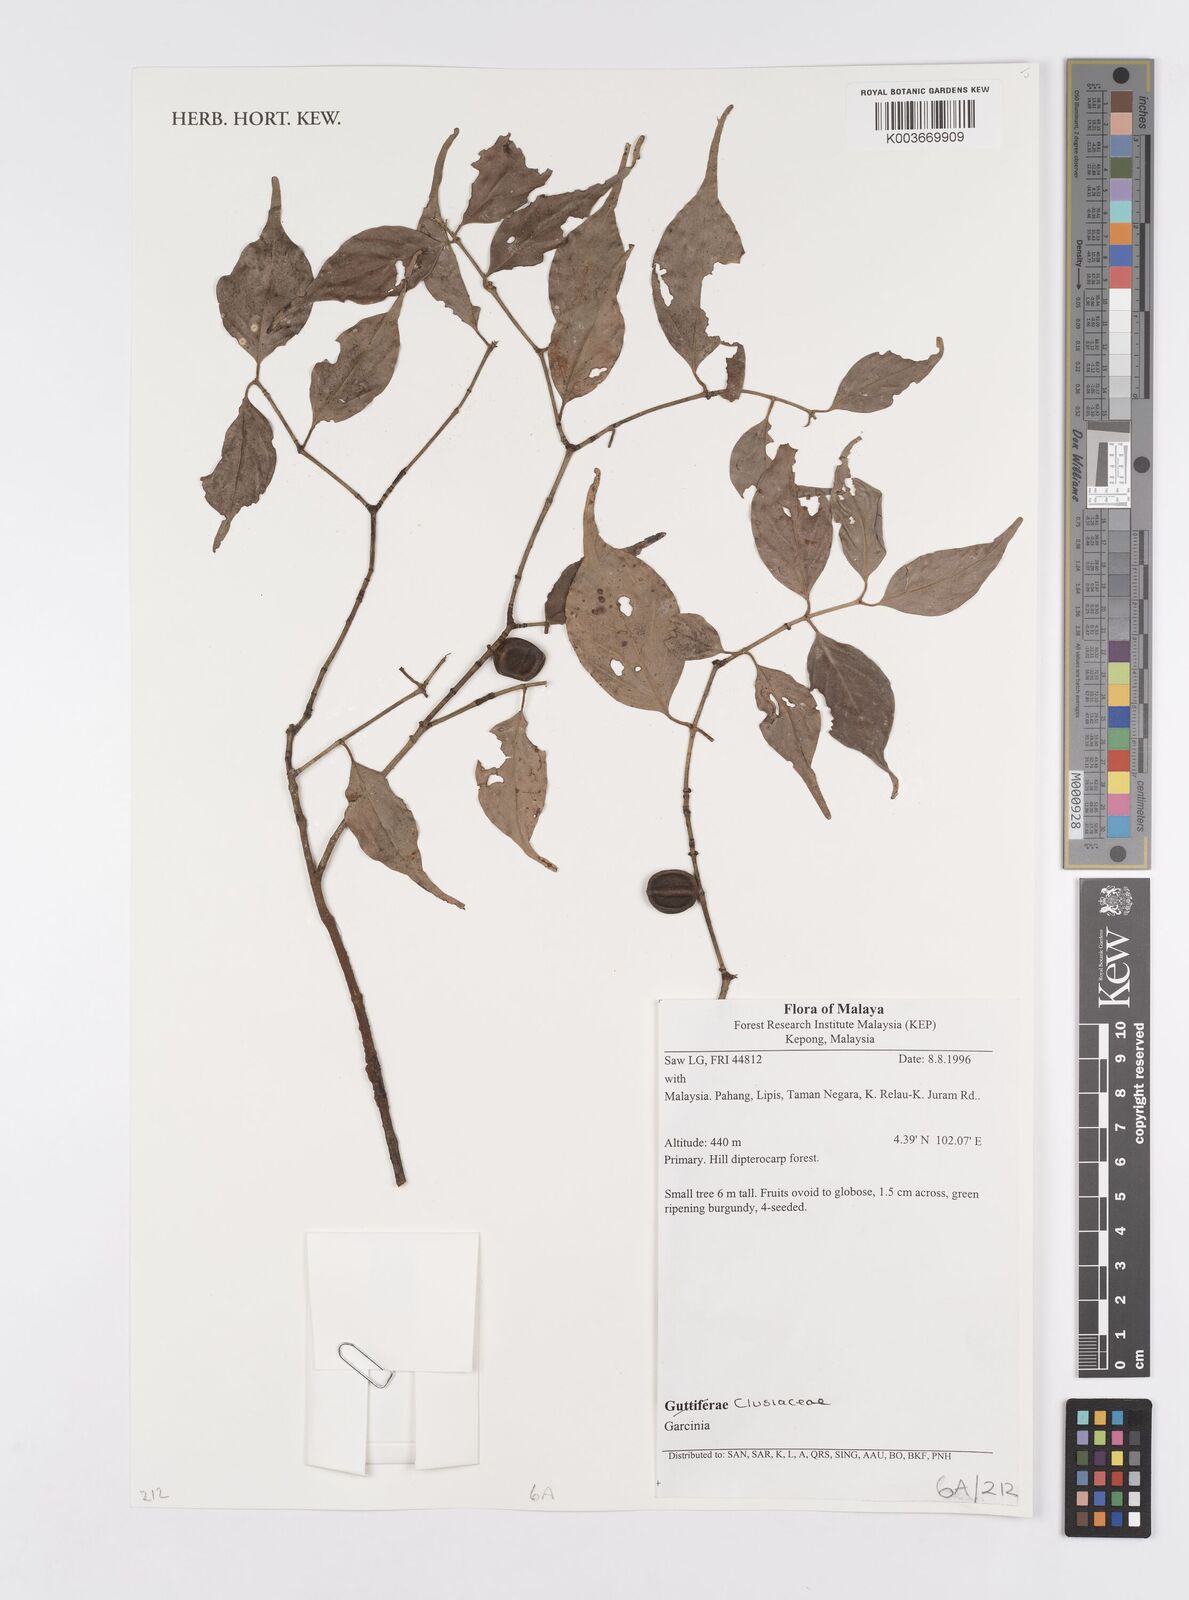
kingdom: Plantae
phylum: Tracheophyta
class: Magnoliopsida
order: Malpighiales
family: Clusiaceae
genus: Garcinia
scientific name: Garcinia
